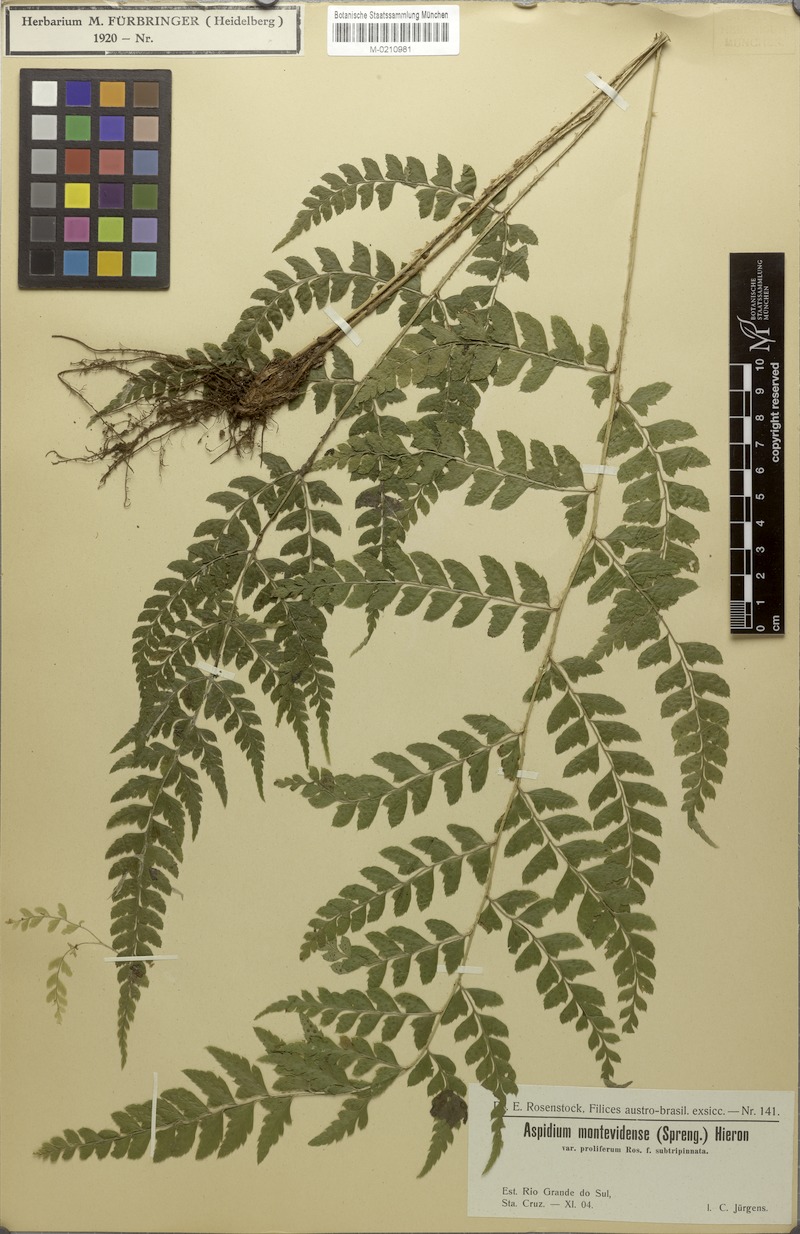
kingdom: Plantae
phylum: Tracheophyta
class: Polypodiopsida
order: Polypodiales
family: Dryopteridaceae
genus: Polystichum
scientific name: Polystichum platyphyllum
